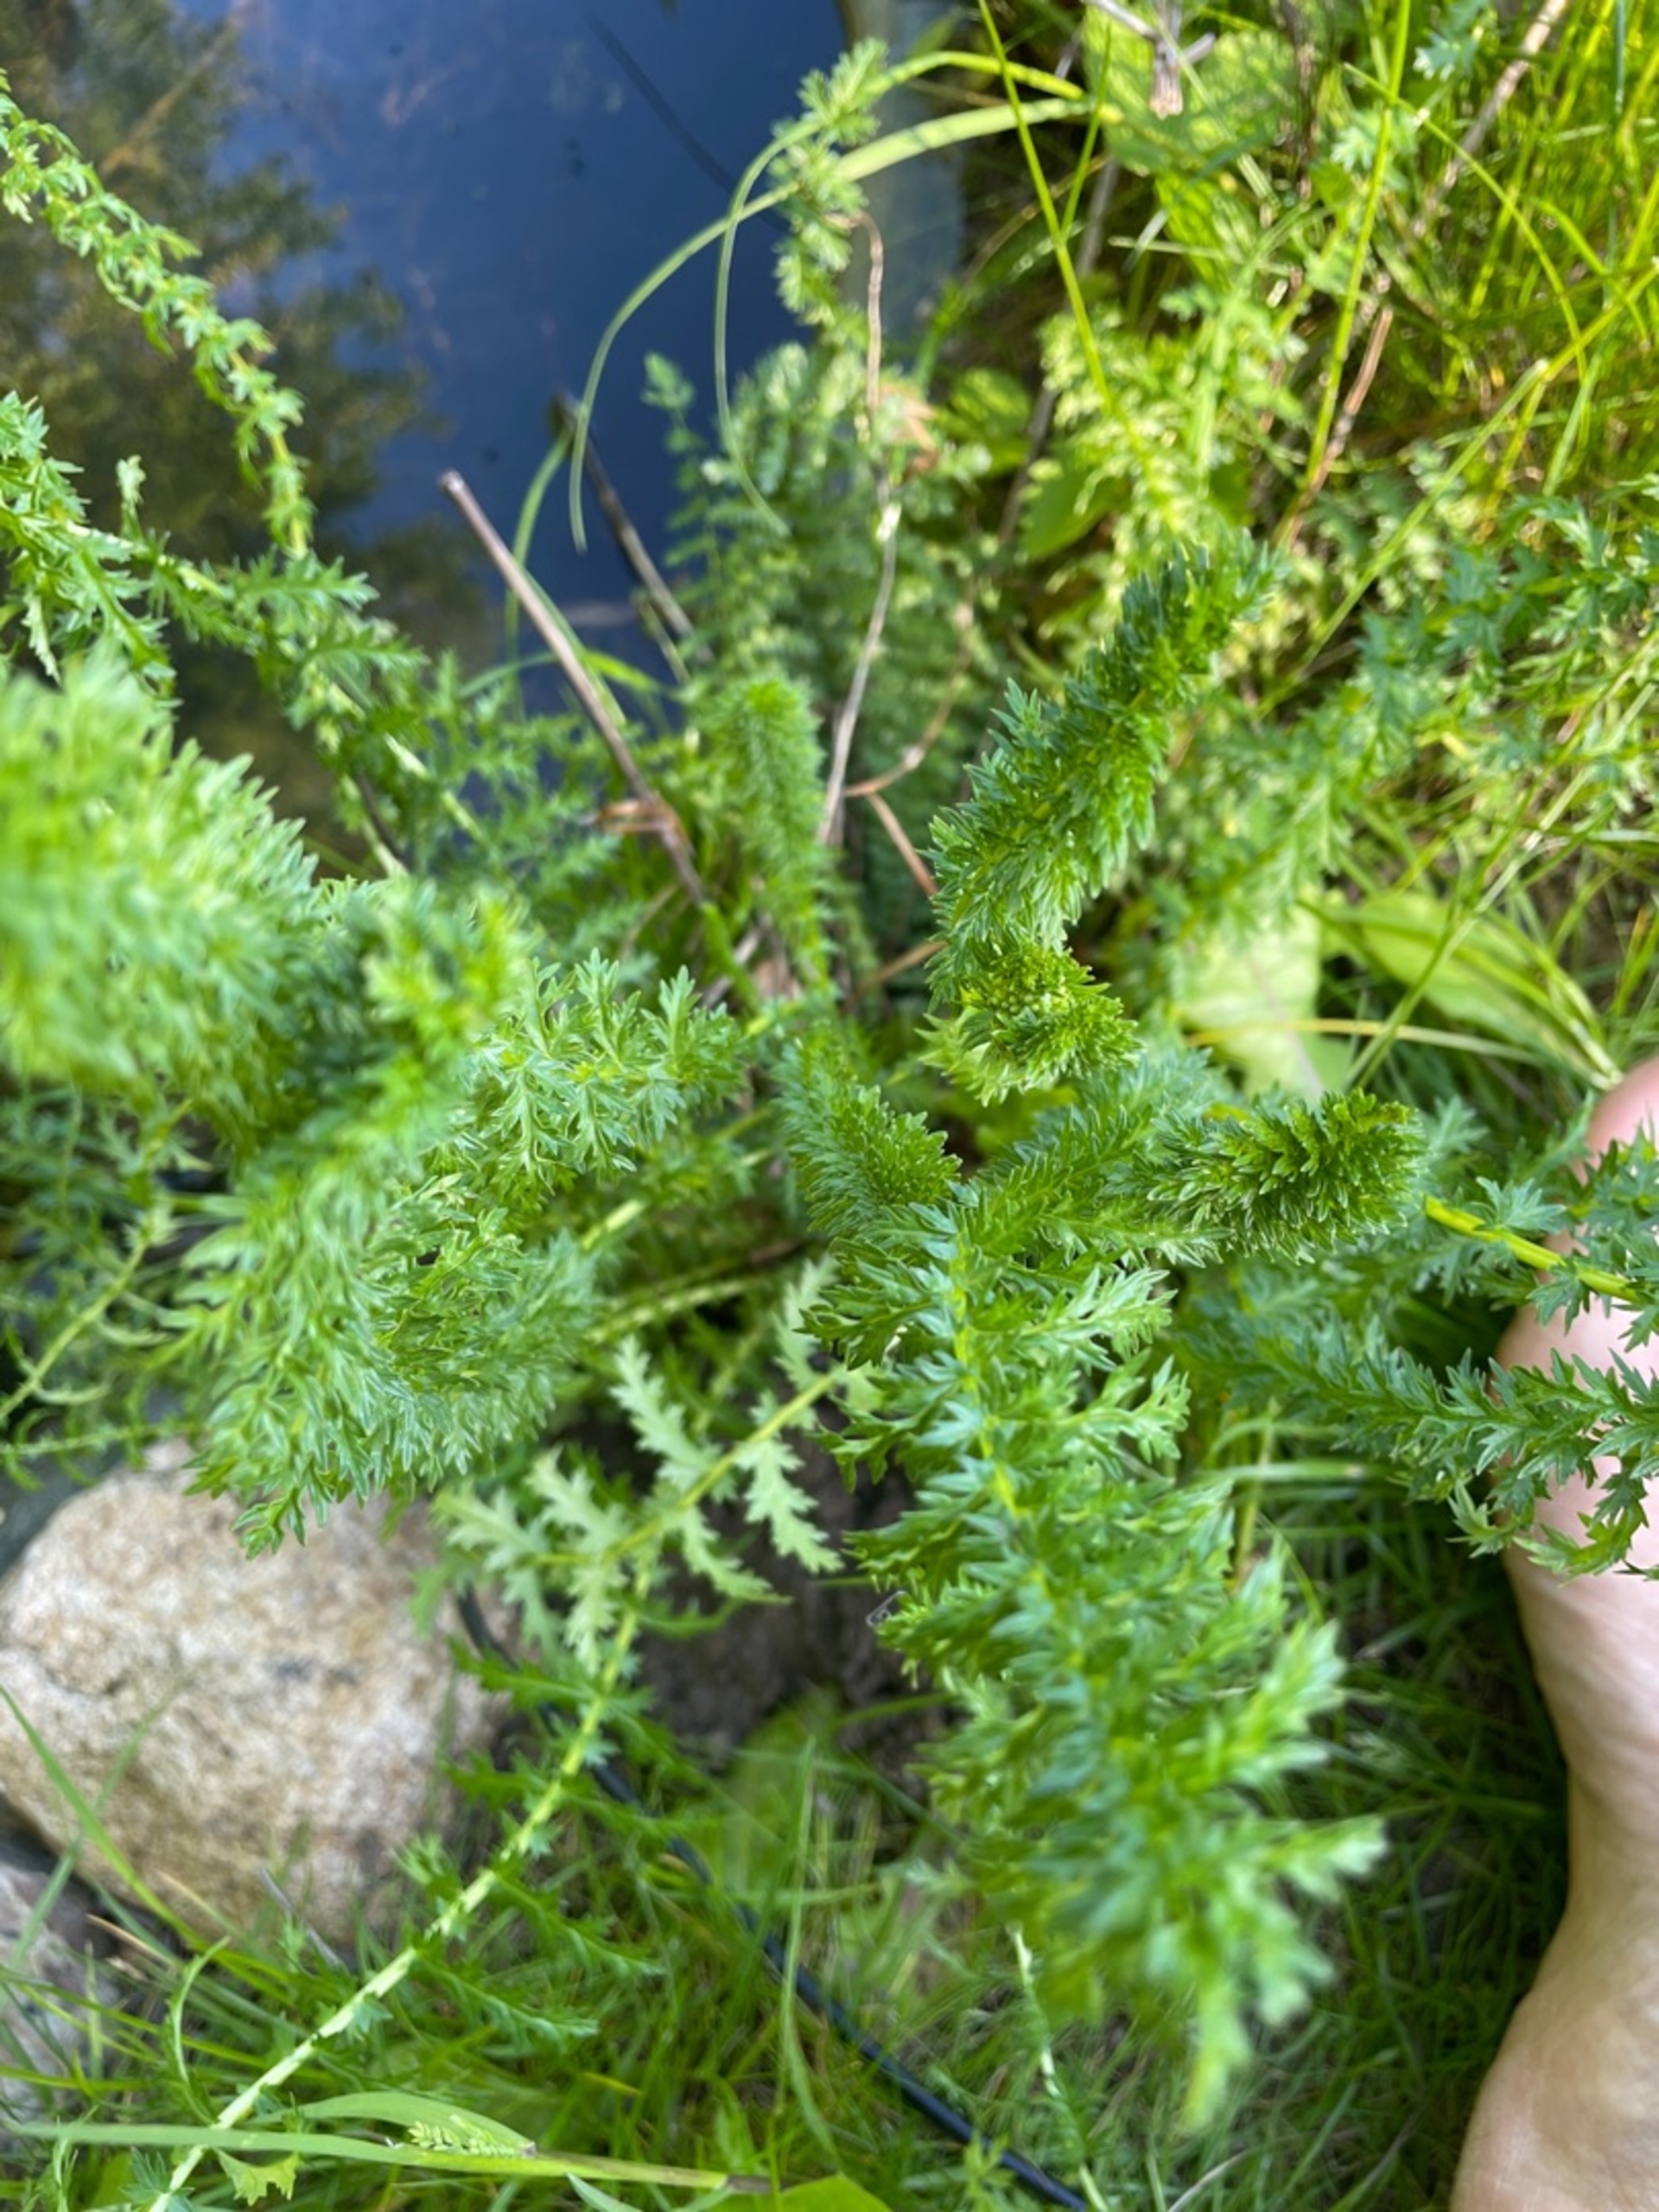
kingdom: Plantae
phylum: Tracheophyta
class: Magnoliopsida
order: Rosales
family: Rosaceae
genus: Filipendula
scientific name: Filipendula vulgaris
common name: Knoldet mjødurt
